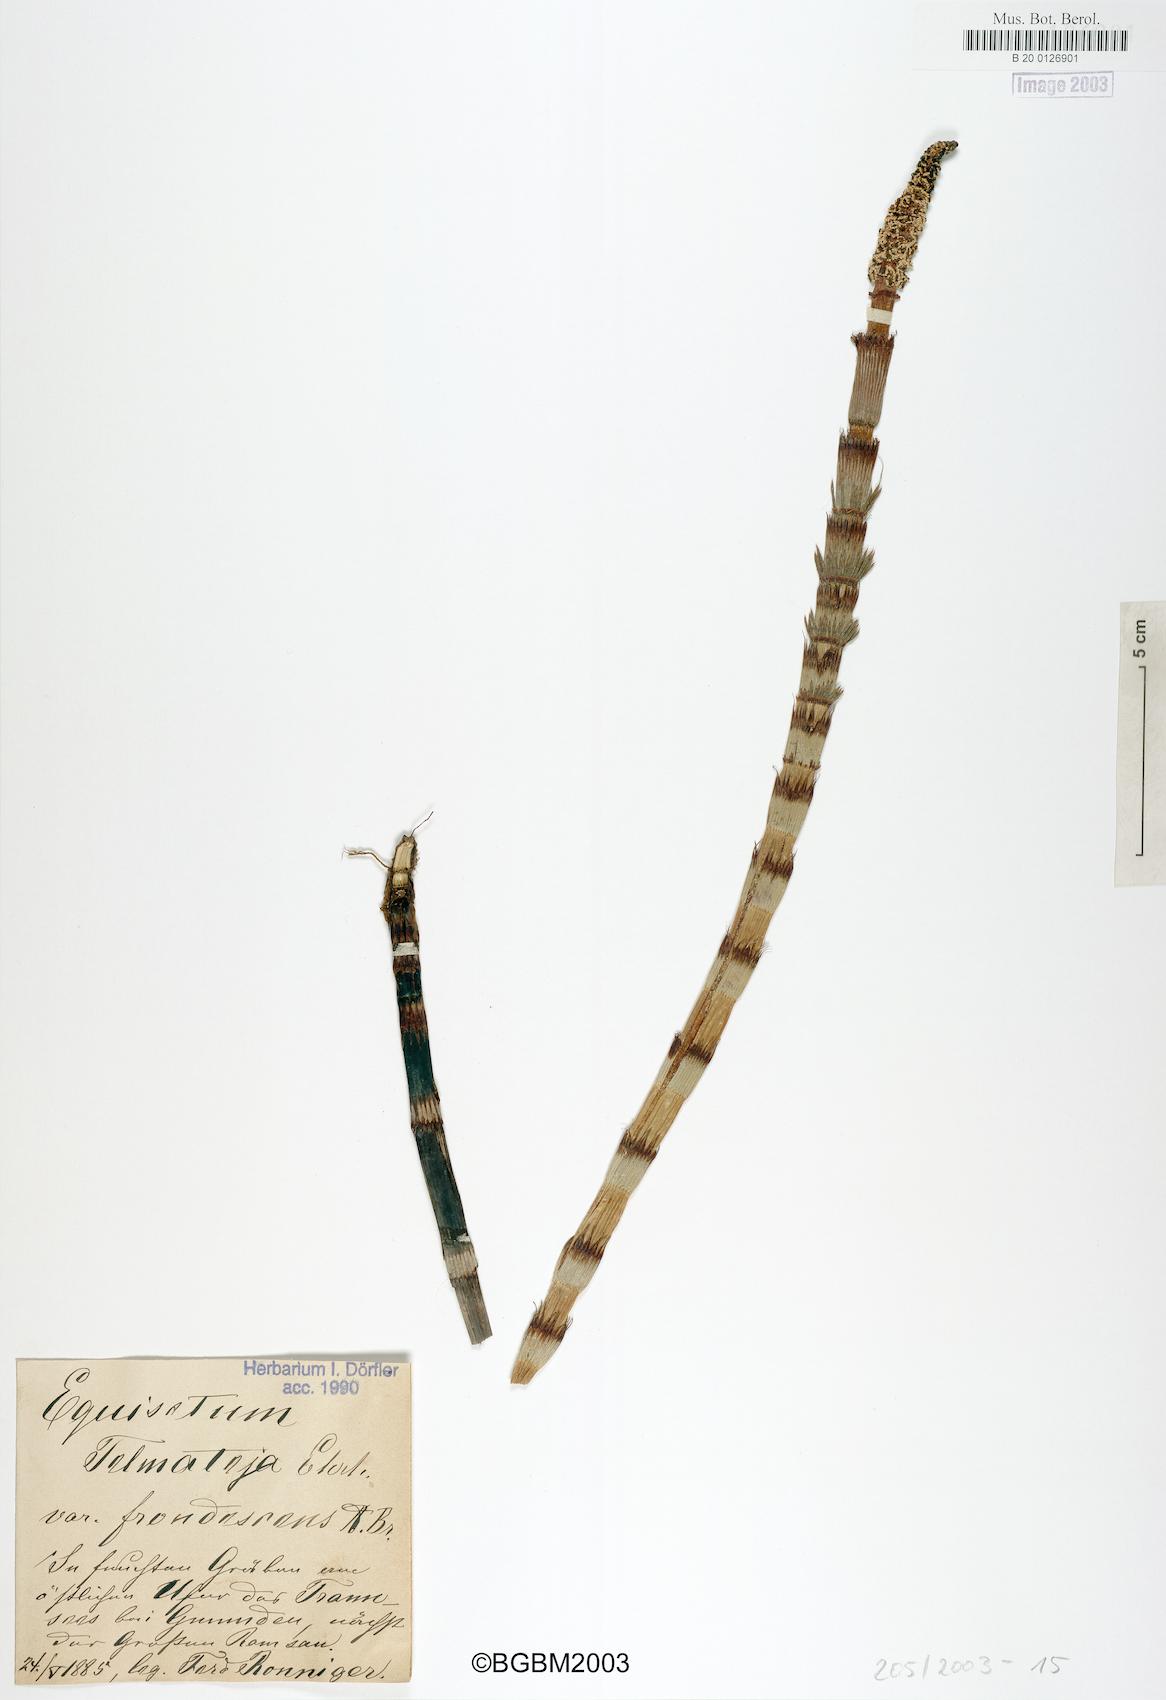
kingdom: Plantae
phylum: Tracheophyta
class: Polypodiopsida
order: Equisetales
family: Equisetaceae
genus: Equisetum
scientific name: Equisetum braunii
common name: Braun's horsetail
